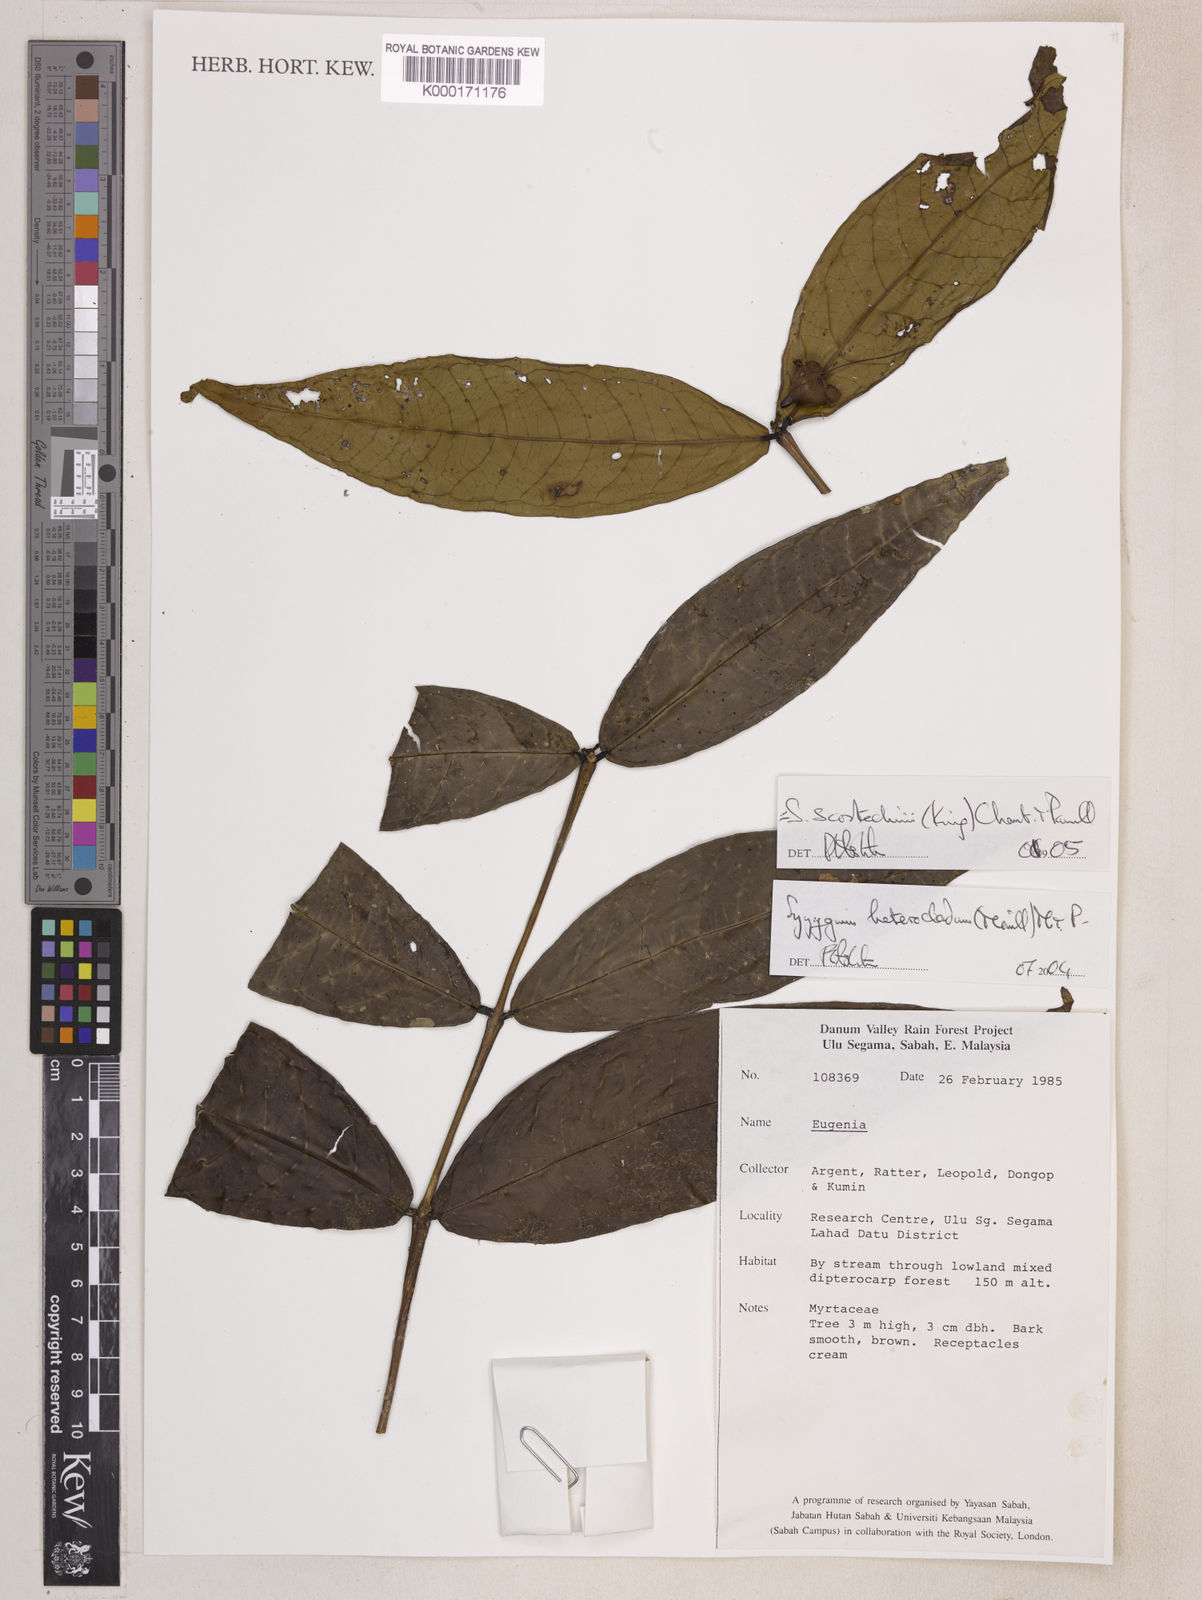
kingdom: Plantae
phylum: Tracheophyta
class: Magnoliopsida
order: Myrtales
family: Myrtaceae
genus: Syzygium
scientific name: Syzygium scortechinii
